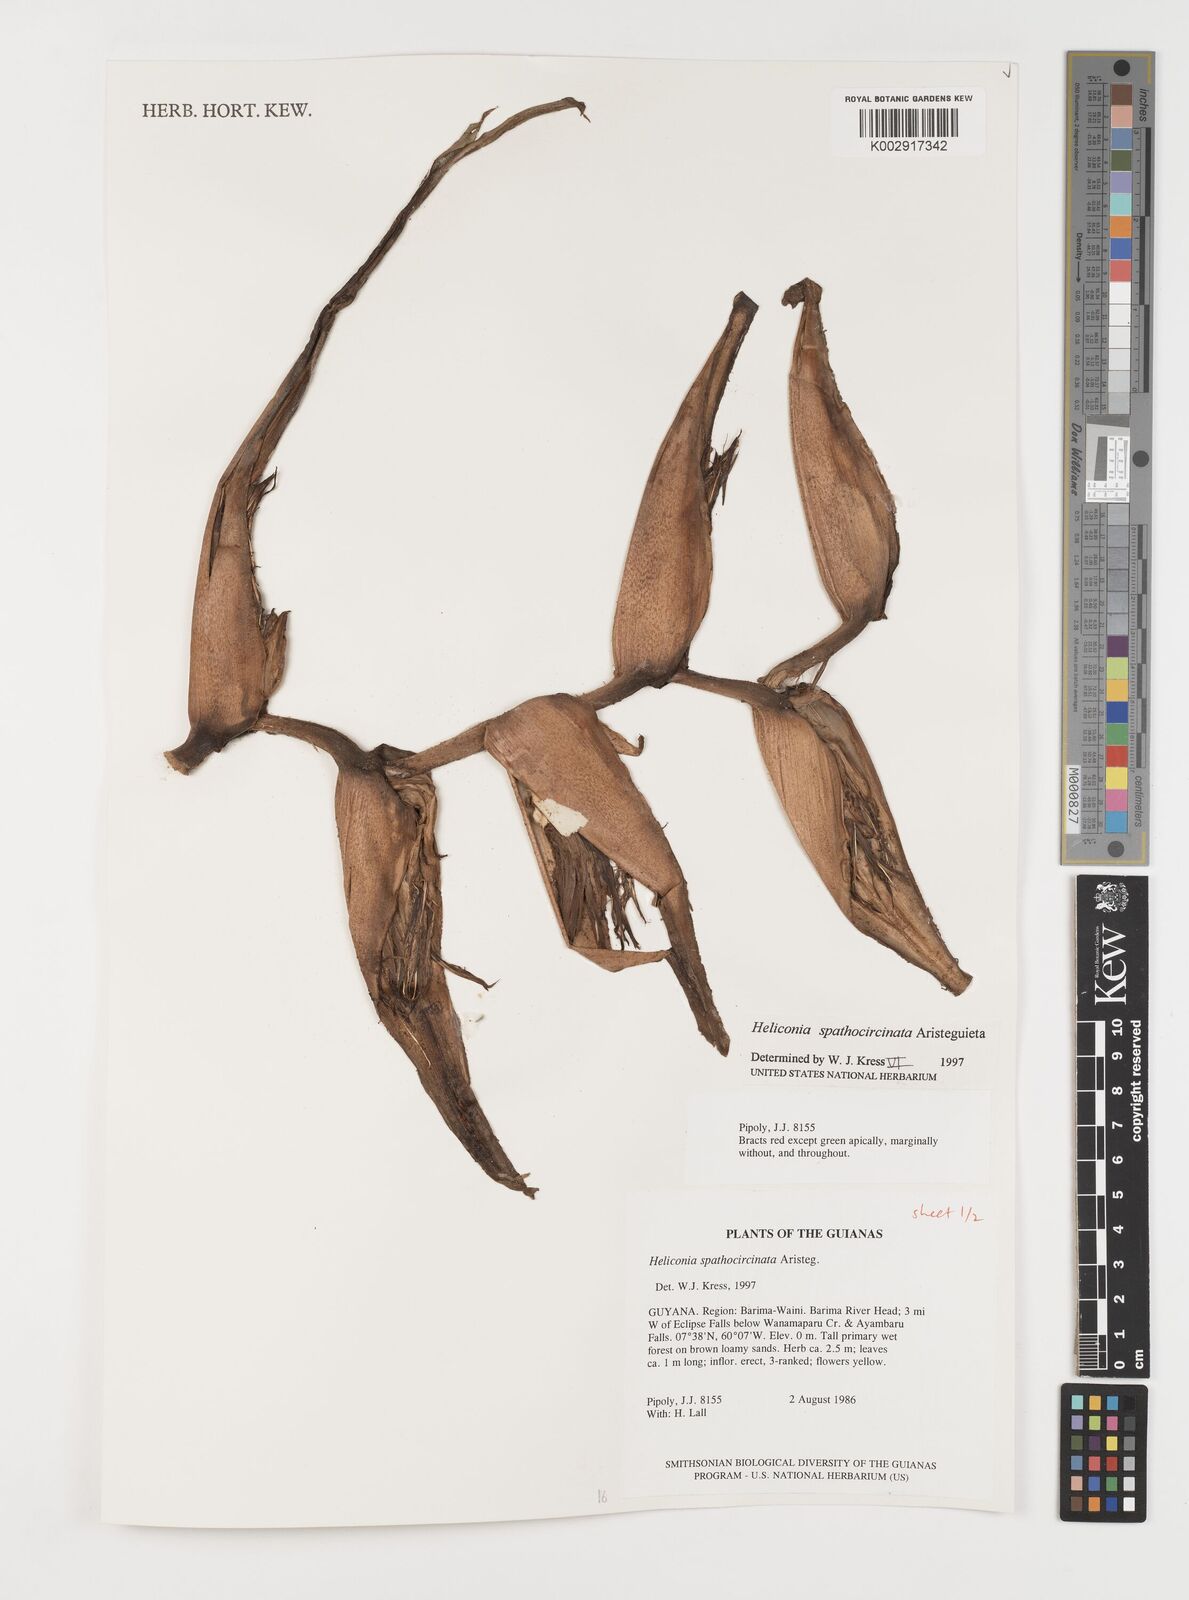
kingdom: Plantae
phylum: Tracheophyta
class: Liliopsida
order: Zingiberales
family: Heliconiaceae
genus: Heliconia
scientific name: Heliconia spathocircinata
